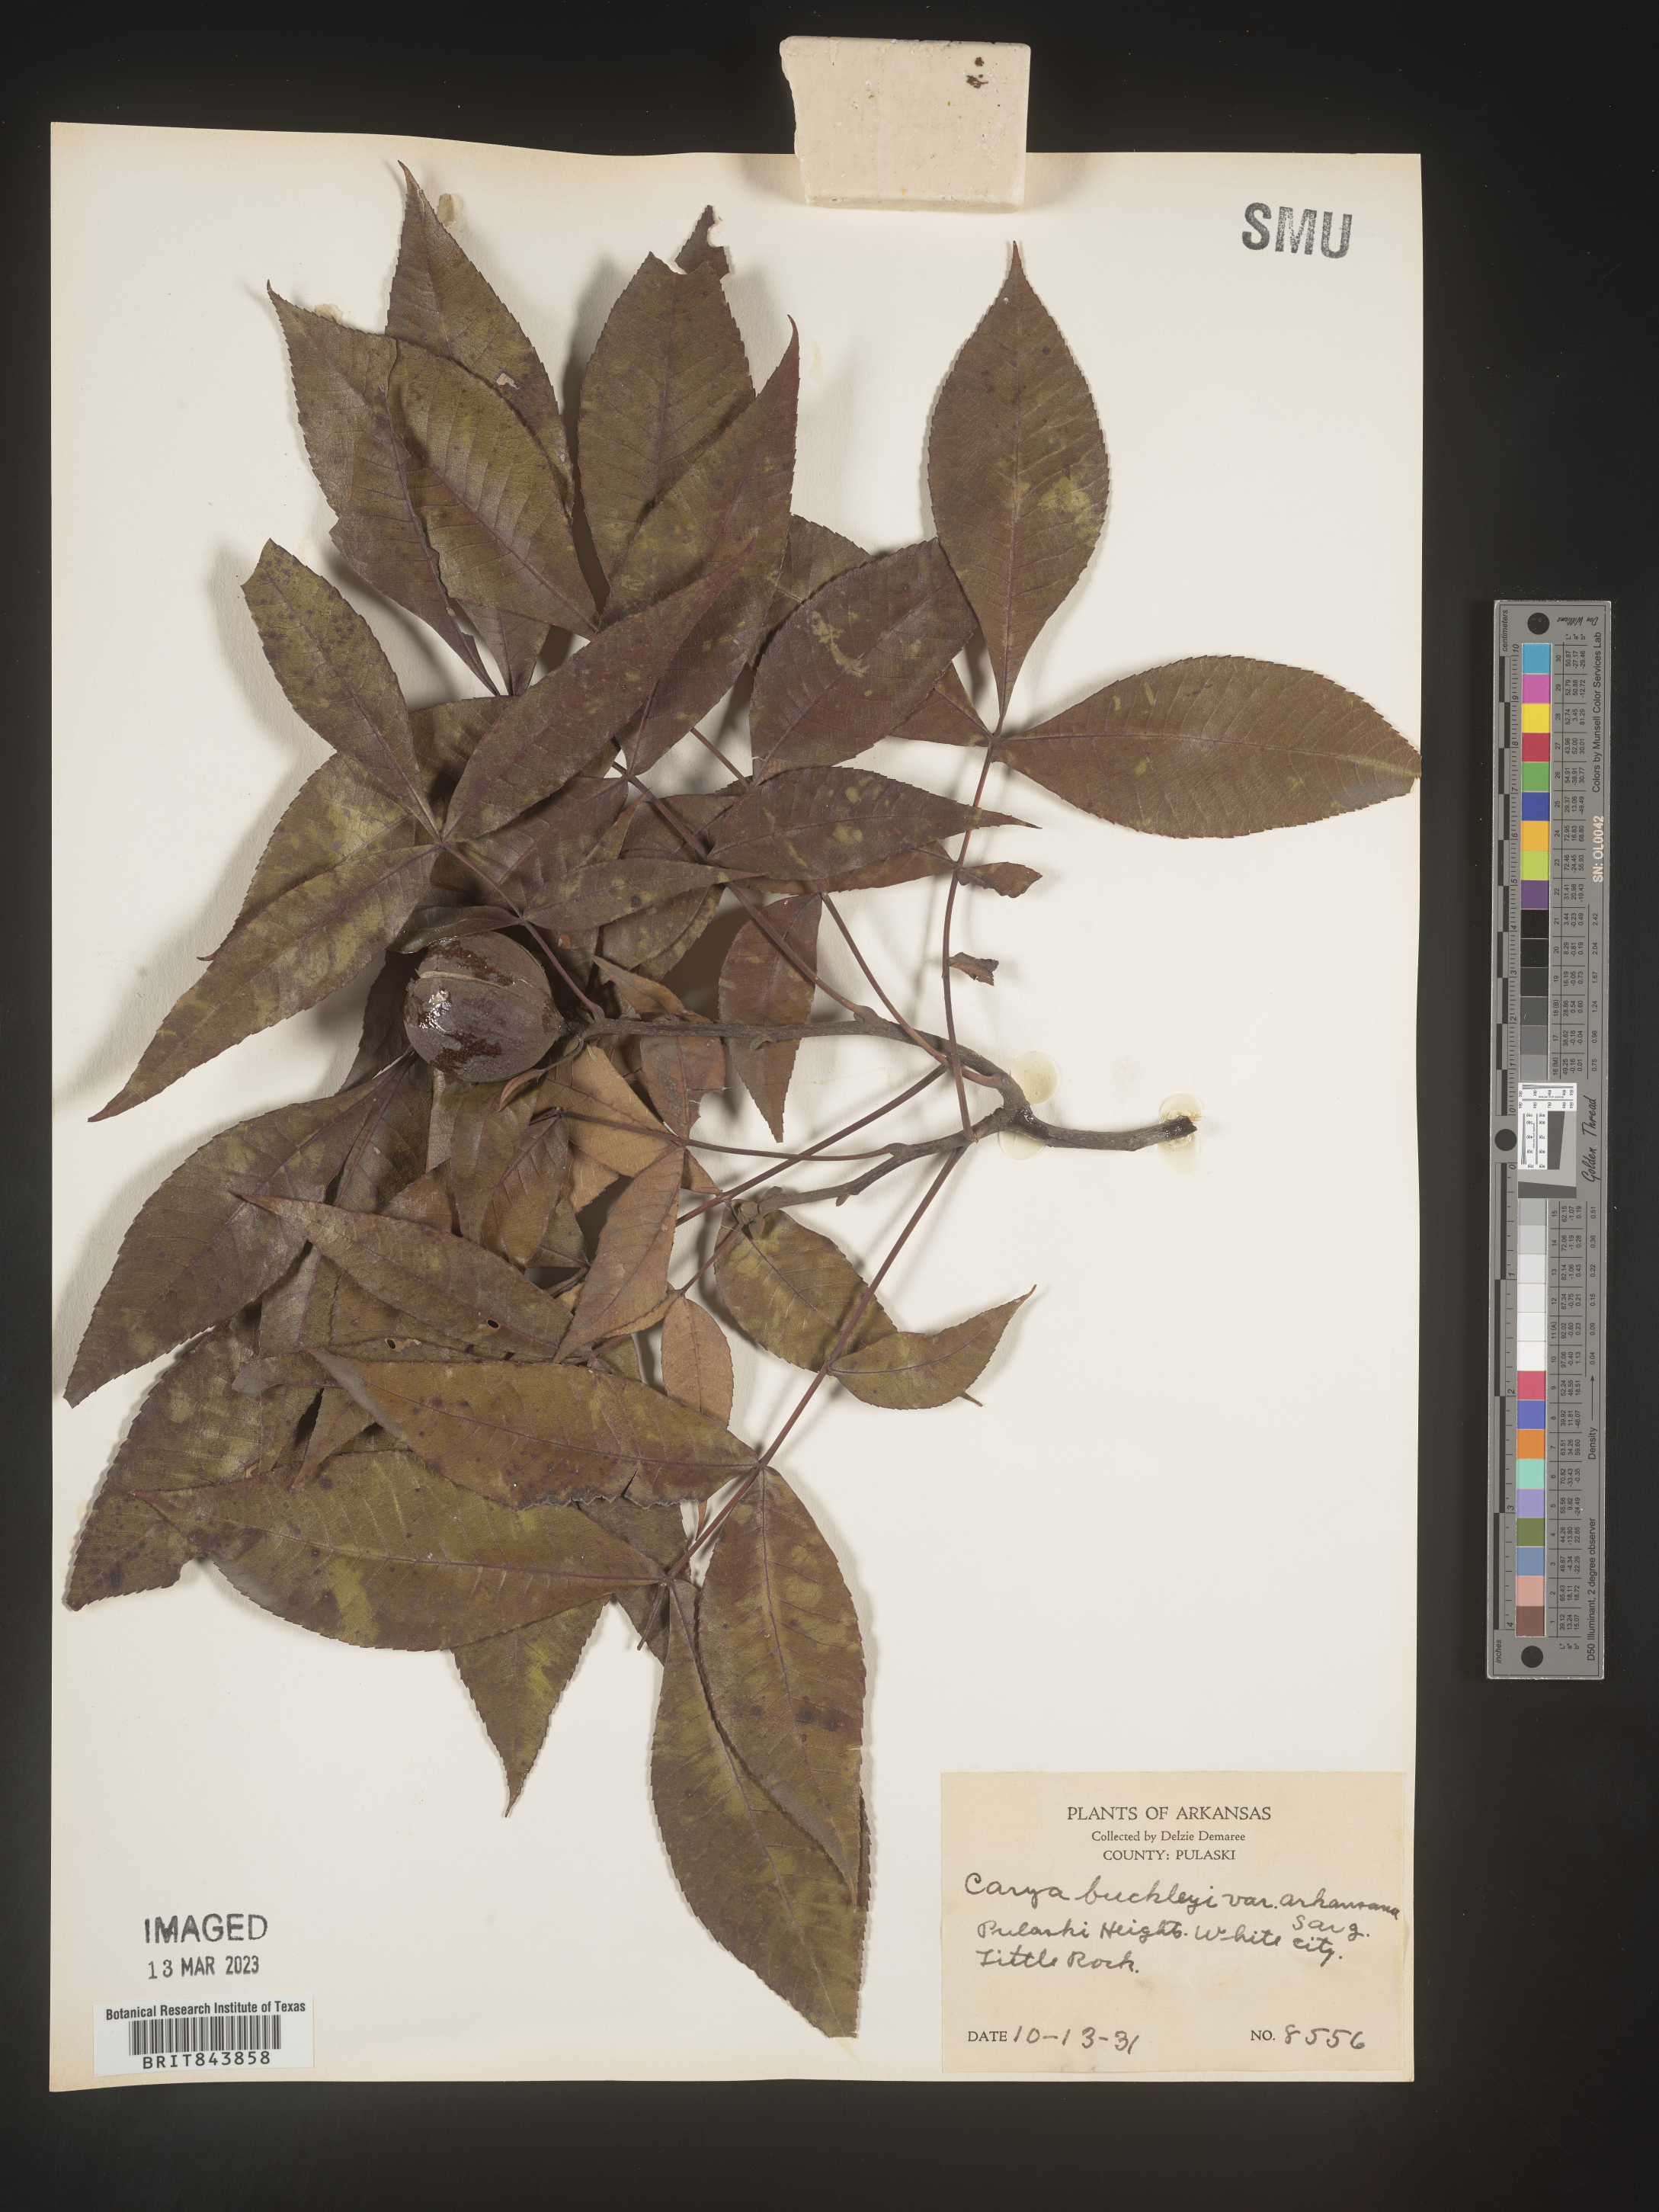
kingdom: Plantae
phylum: Tracheophyta
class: Magnoliopsida
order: Fagales
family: Juglandaceae
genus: Carya
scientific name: Carya texana
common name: Black hickory
